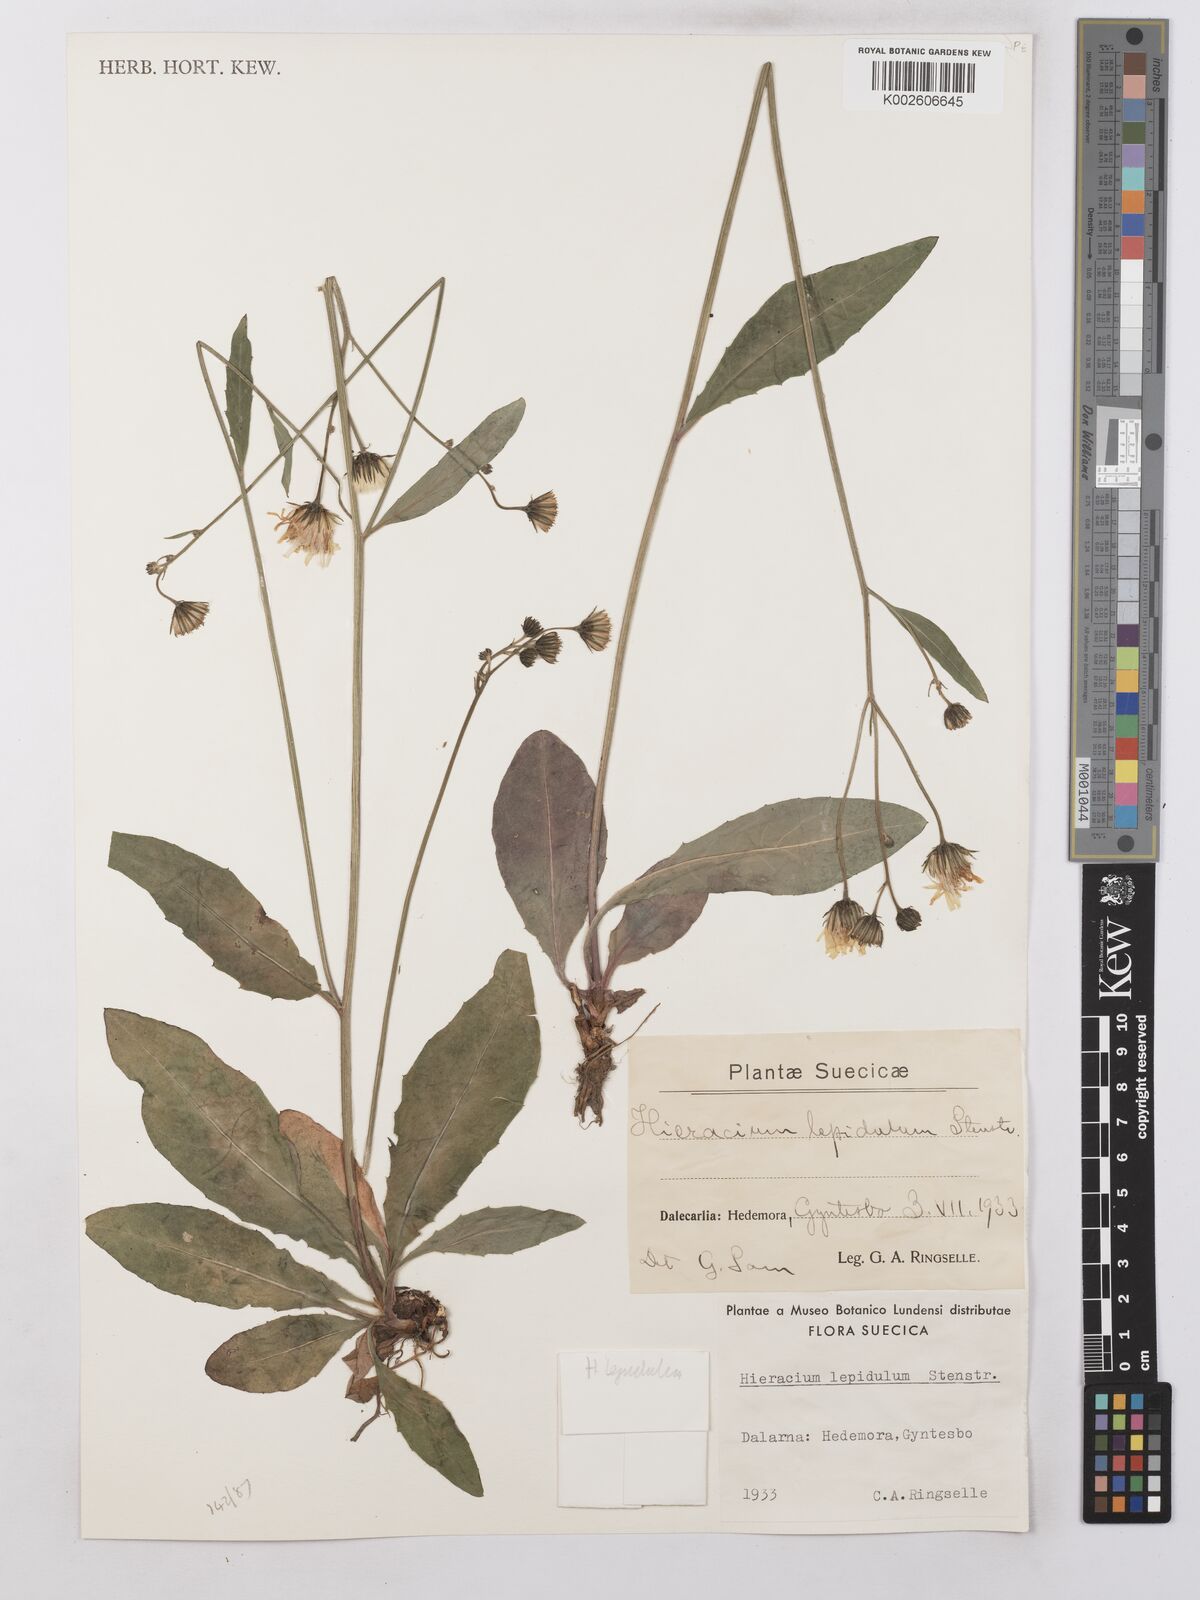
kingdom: Plantae
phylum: Tracheophyta
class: Magnoliopsida
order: Asterales
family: Asteraceae
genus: Hieracium
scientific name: Hieracium lachenalii
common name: Common hawkweed
